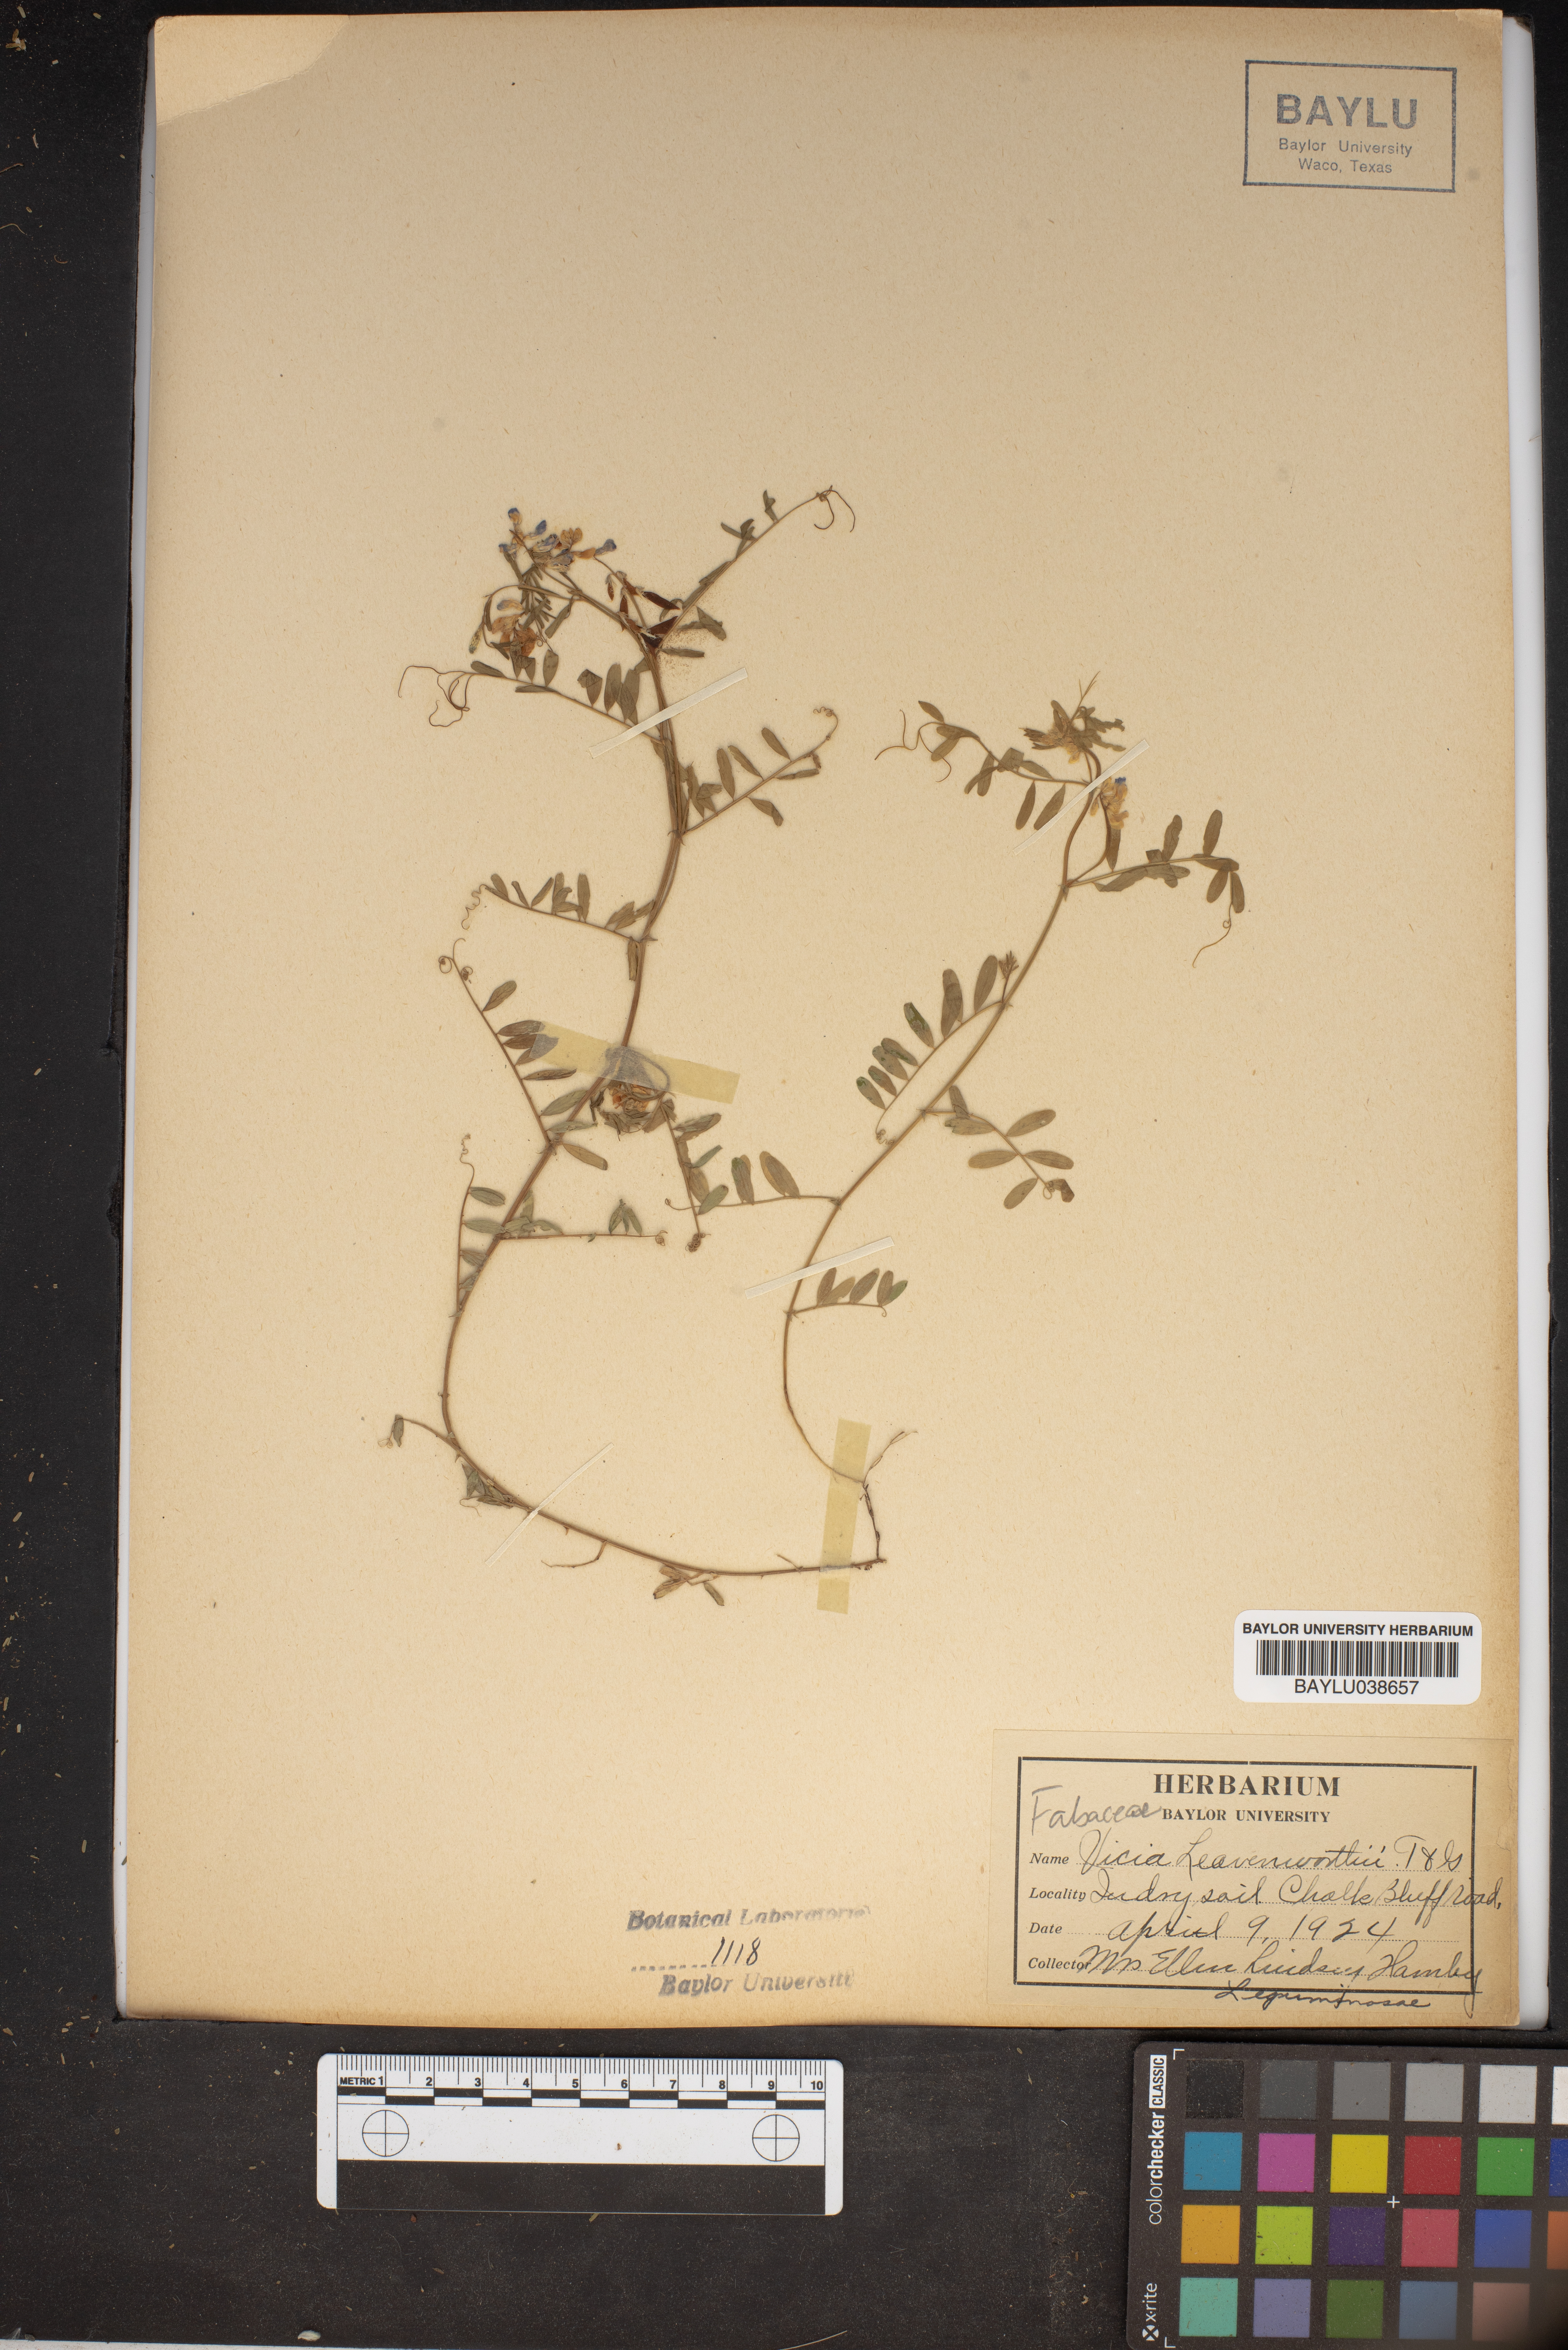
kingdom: Plantae
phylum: Tracheophyta
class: Magnoliopsida
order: Fabales
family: Fabaceae
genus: Vicia
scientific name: Vicia ludoviciana
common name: Louisiana vetch
